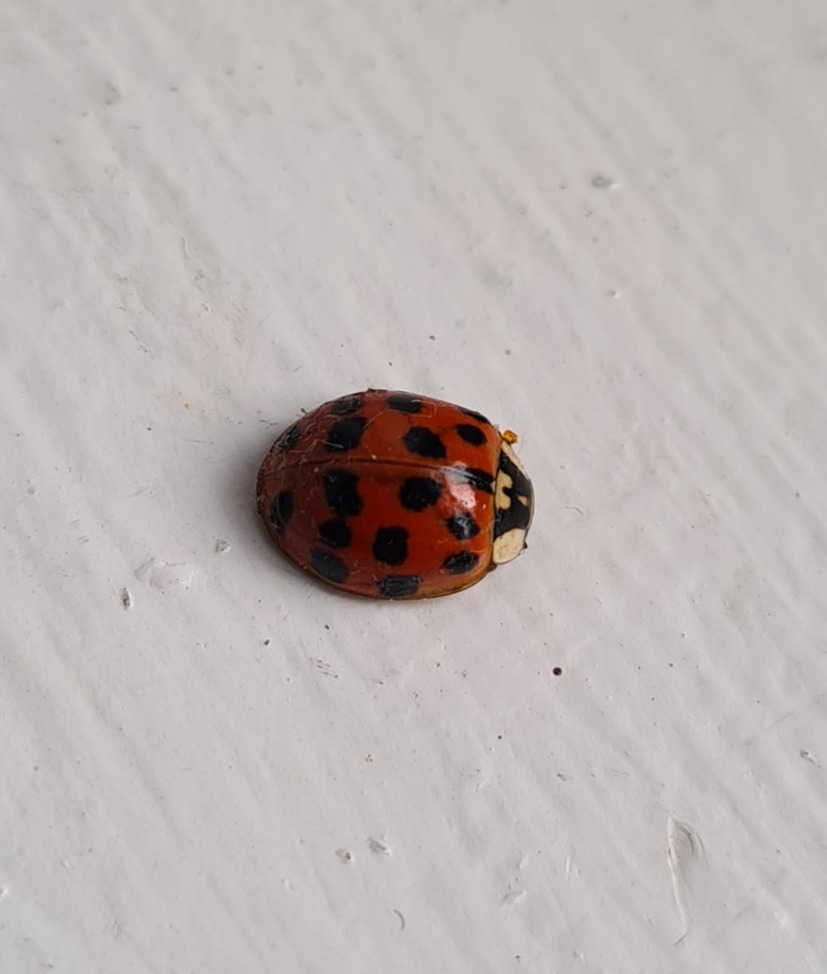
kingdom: Animalia
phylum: Arthropoda
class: Insecta
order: Coleoptera
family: Coccinellidae
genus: Harmonia
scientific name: Harmonia axyridis
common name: Harlekinmariehøne
